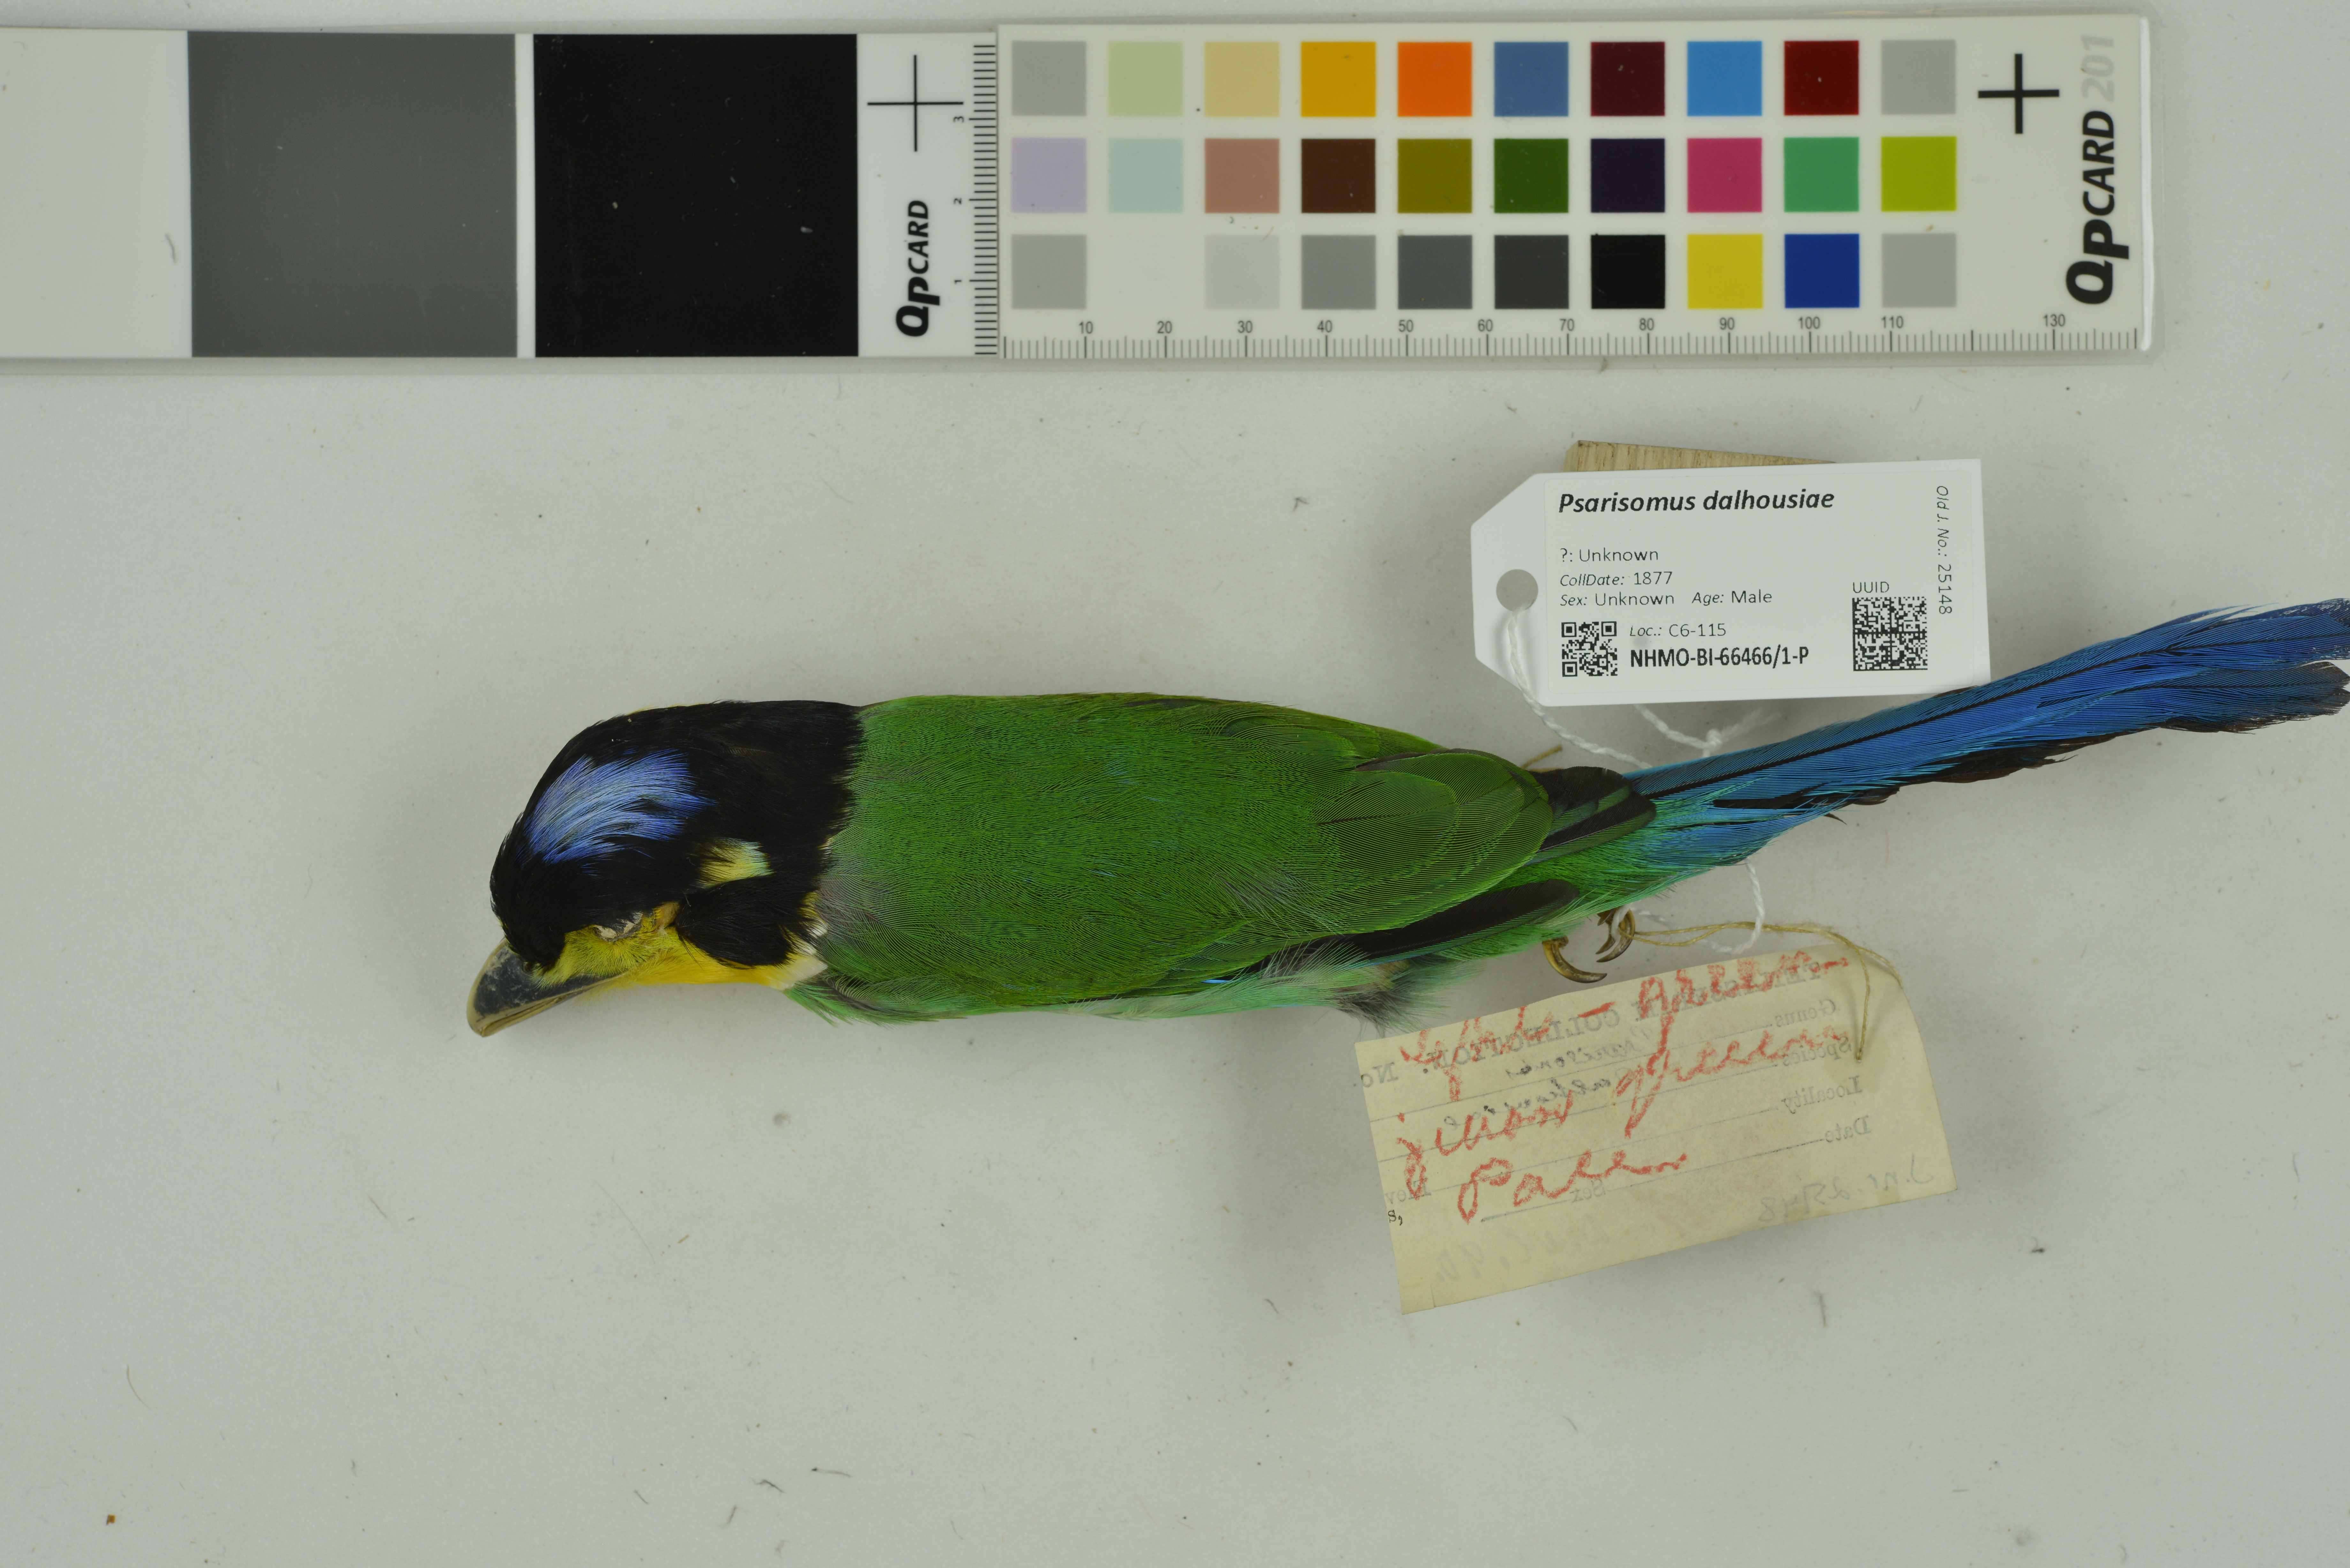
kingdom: Animalia
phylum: Chordata
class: Aves
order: Passeriformes
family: Eurylaimidae
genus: Psarisomus
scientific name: Psarisomus dalhousiae
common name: Long-tailed broadbill
